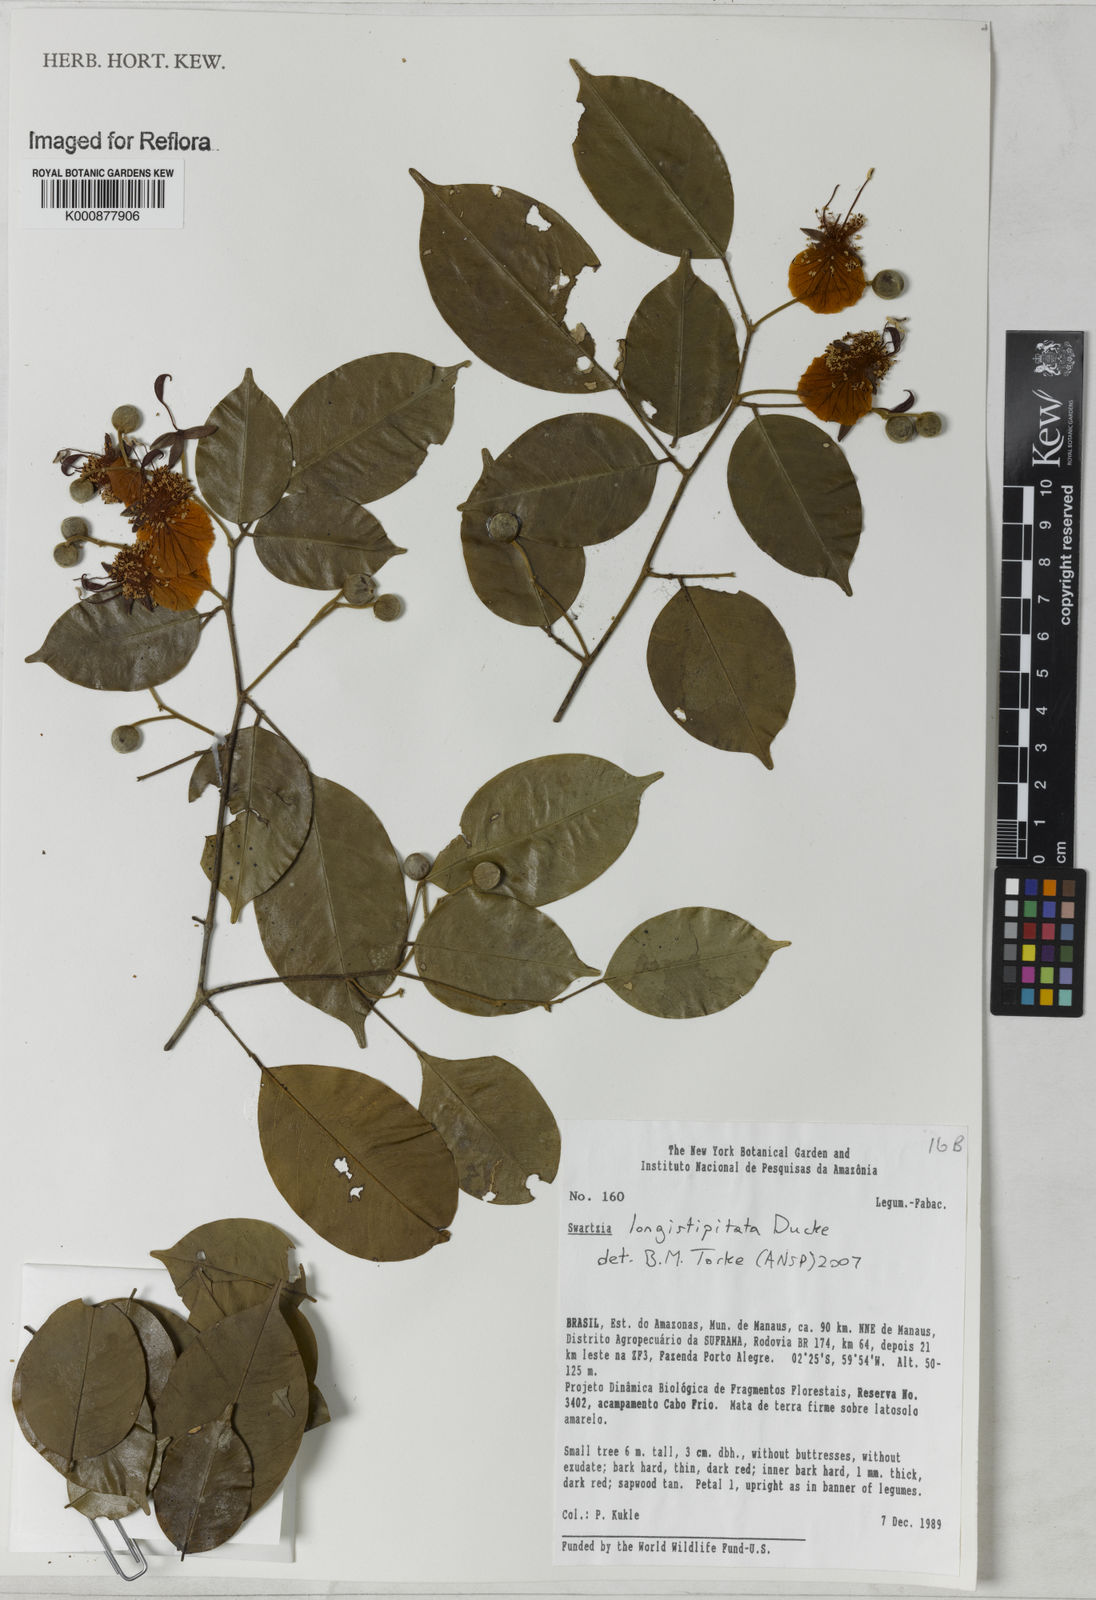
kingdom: Plantae
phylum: Tracheophyta
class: Magnoliopsida
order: Fabales
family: Fabaceae
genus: Swartzia
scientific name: Swartzia longistipitata
